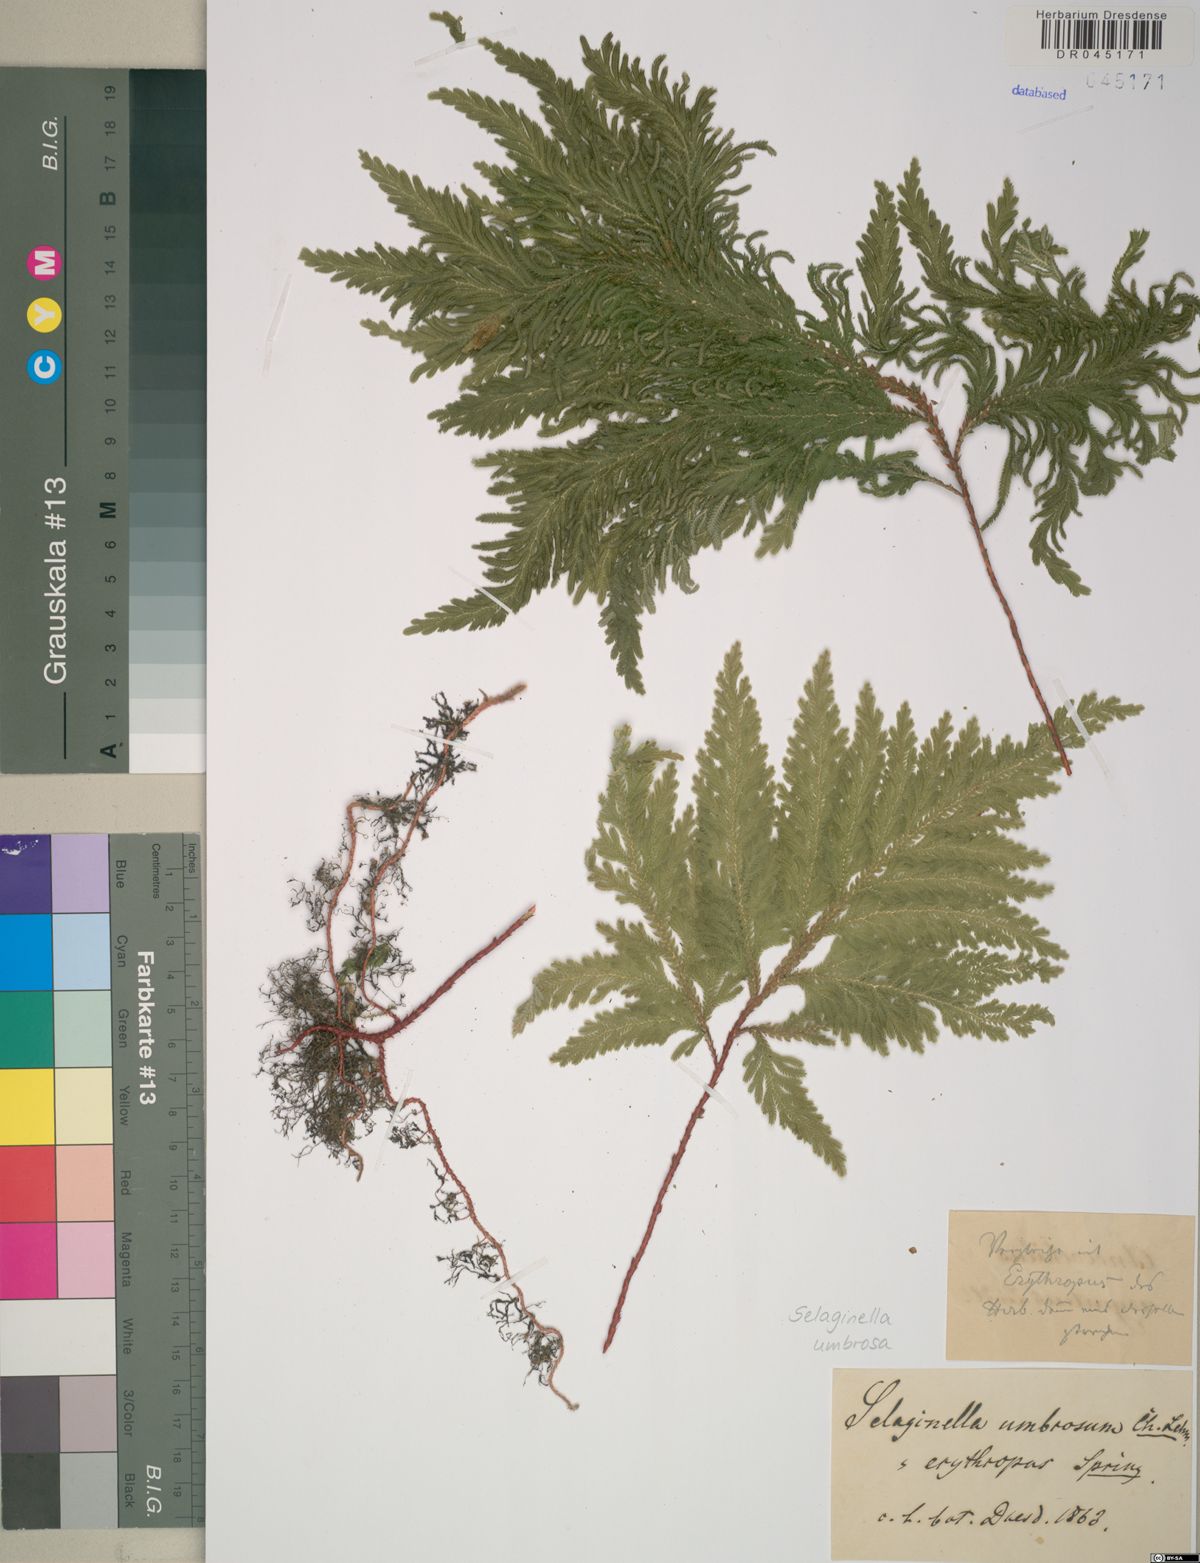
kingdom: Plantae
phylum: Tracheophyta
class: Lycopodiopsida
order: Selaginellales
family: Selaginellaceae
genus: Selaginella
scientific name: Selaginella umbrosa
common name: Spikemoss
